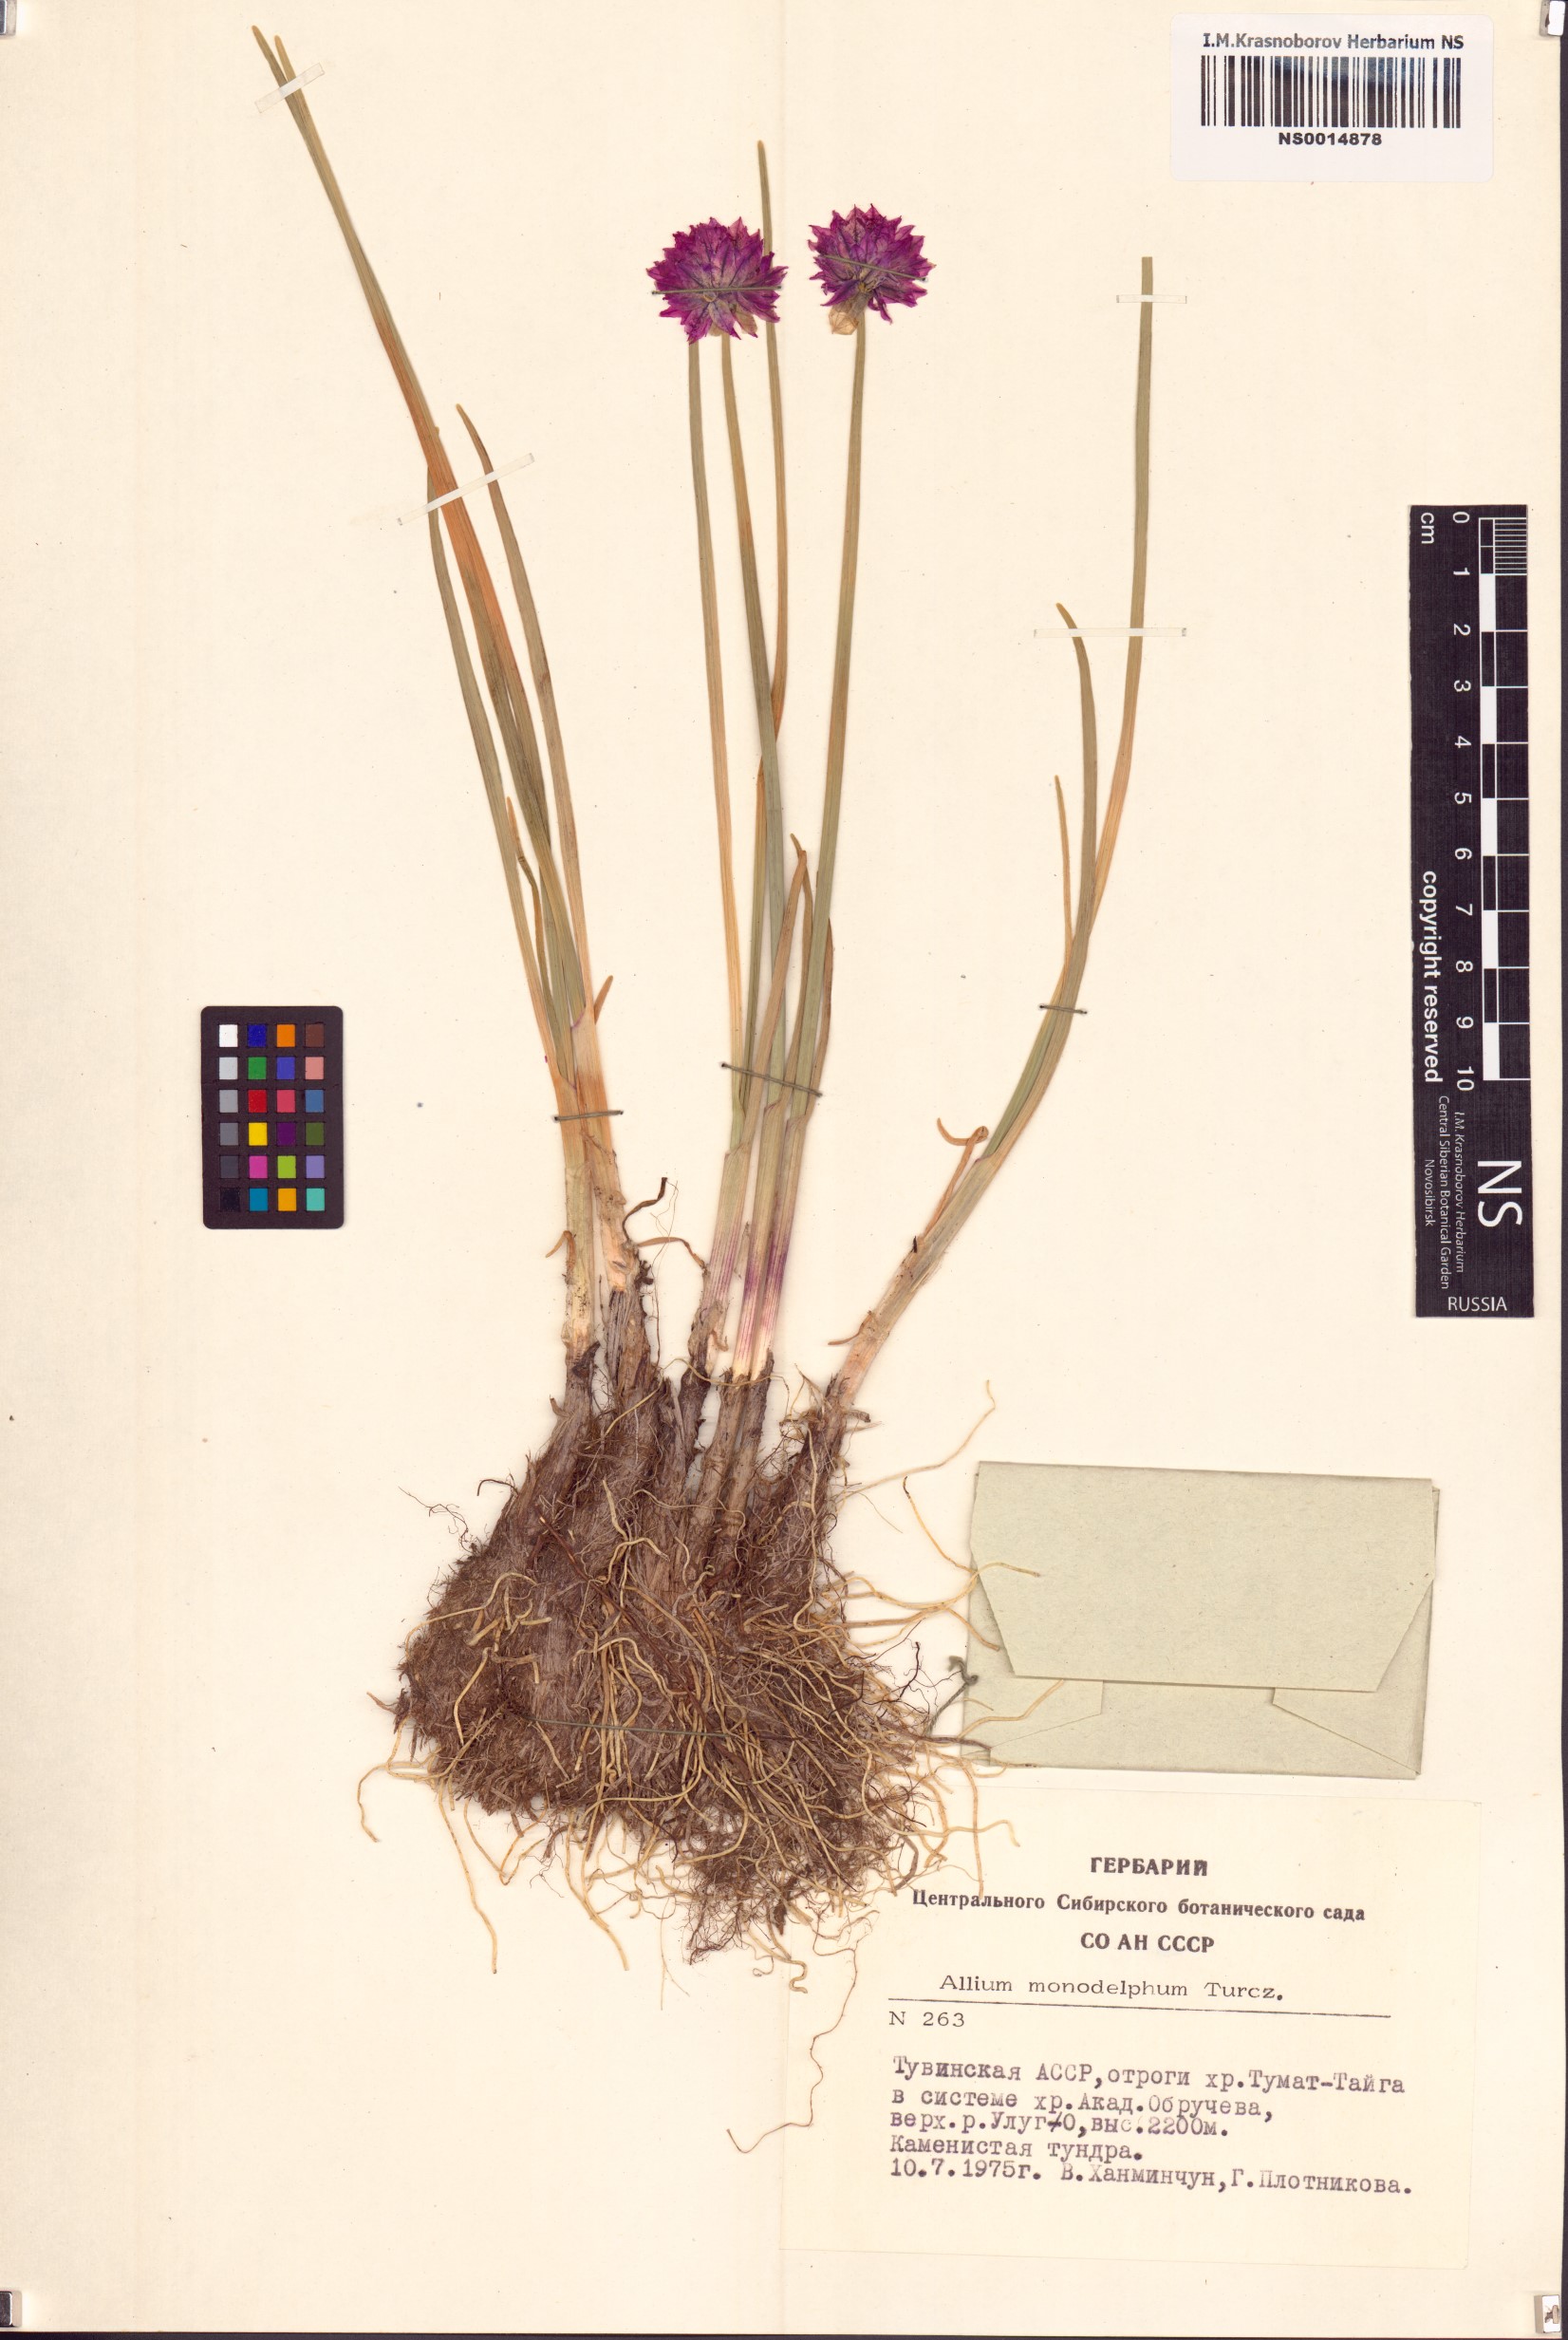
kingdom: Plantae
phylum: Tracheophyta
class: Liliopsida
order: Asparagales
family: Amaryllidaceae
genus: Allium
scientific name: Allium atrosanguineum
